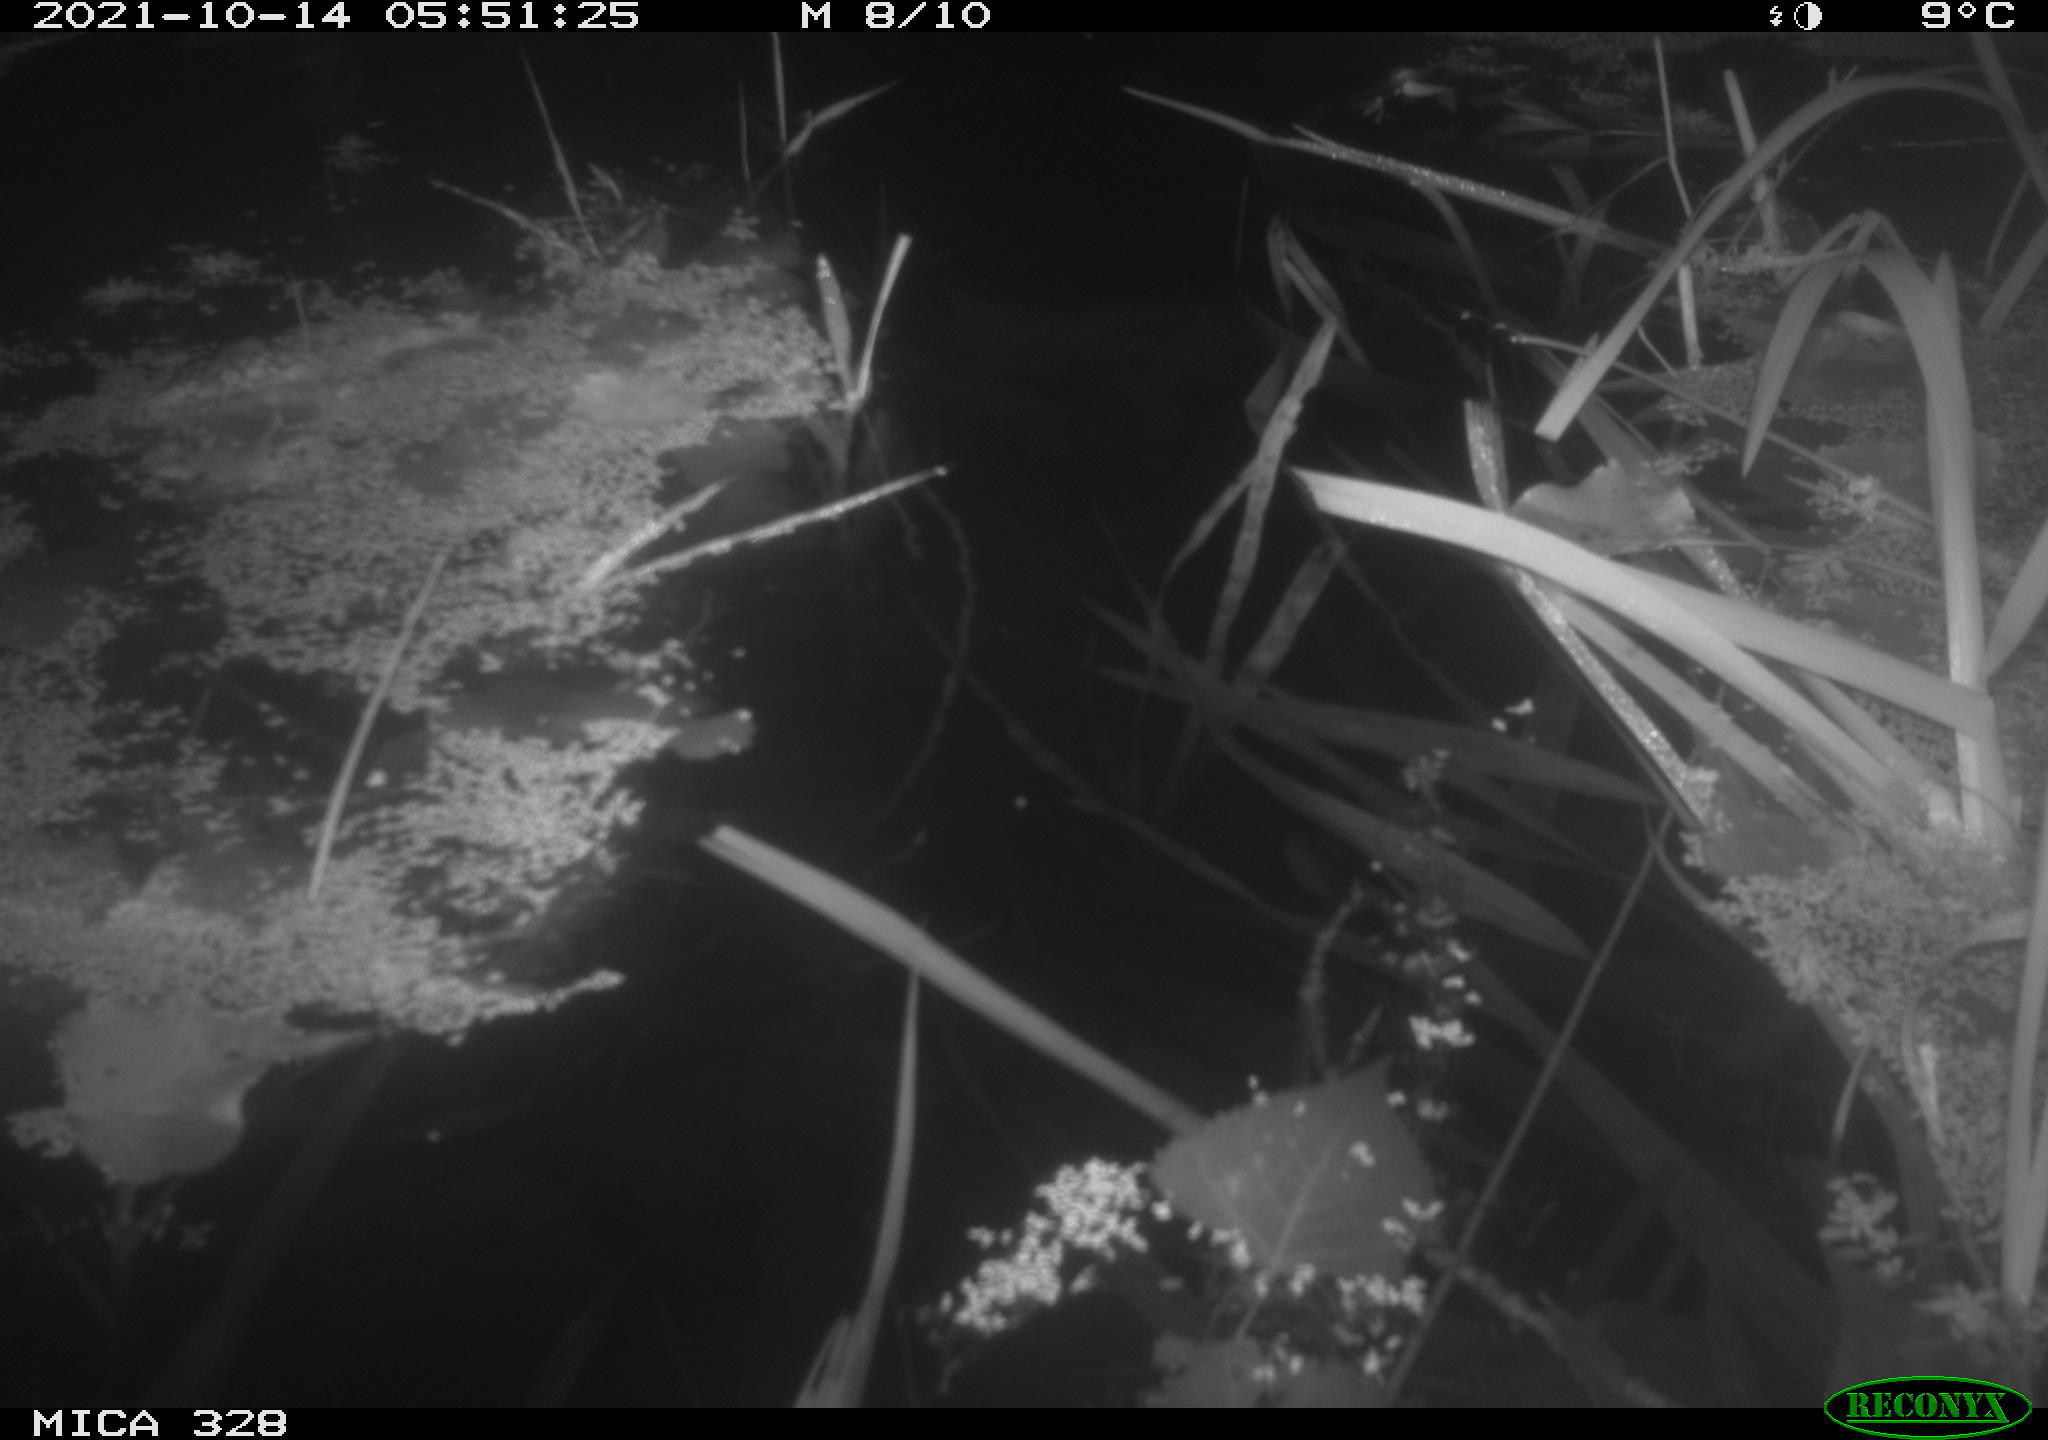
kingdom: Animalia
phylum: Chordata
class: Mammalia
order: Rodentia
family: Cricetidae
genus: Ondatra
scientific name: Ondatra zibethicus
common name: Muskrat
